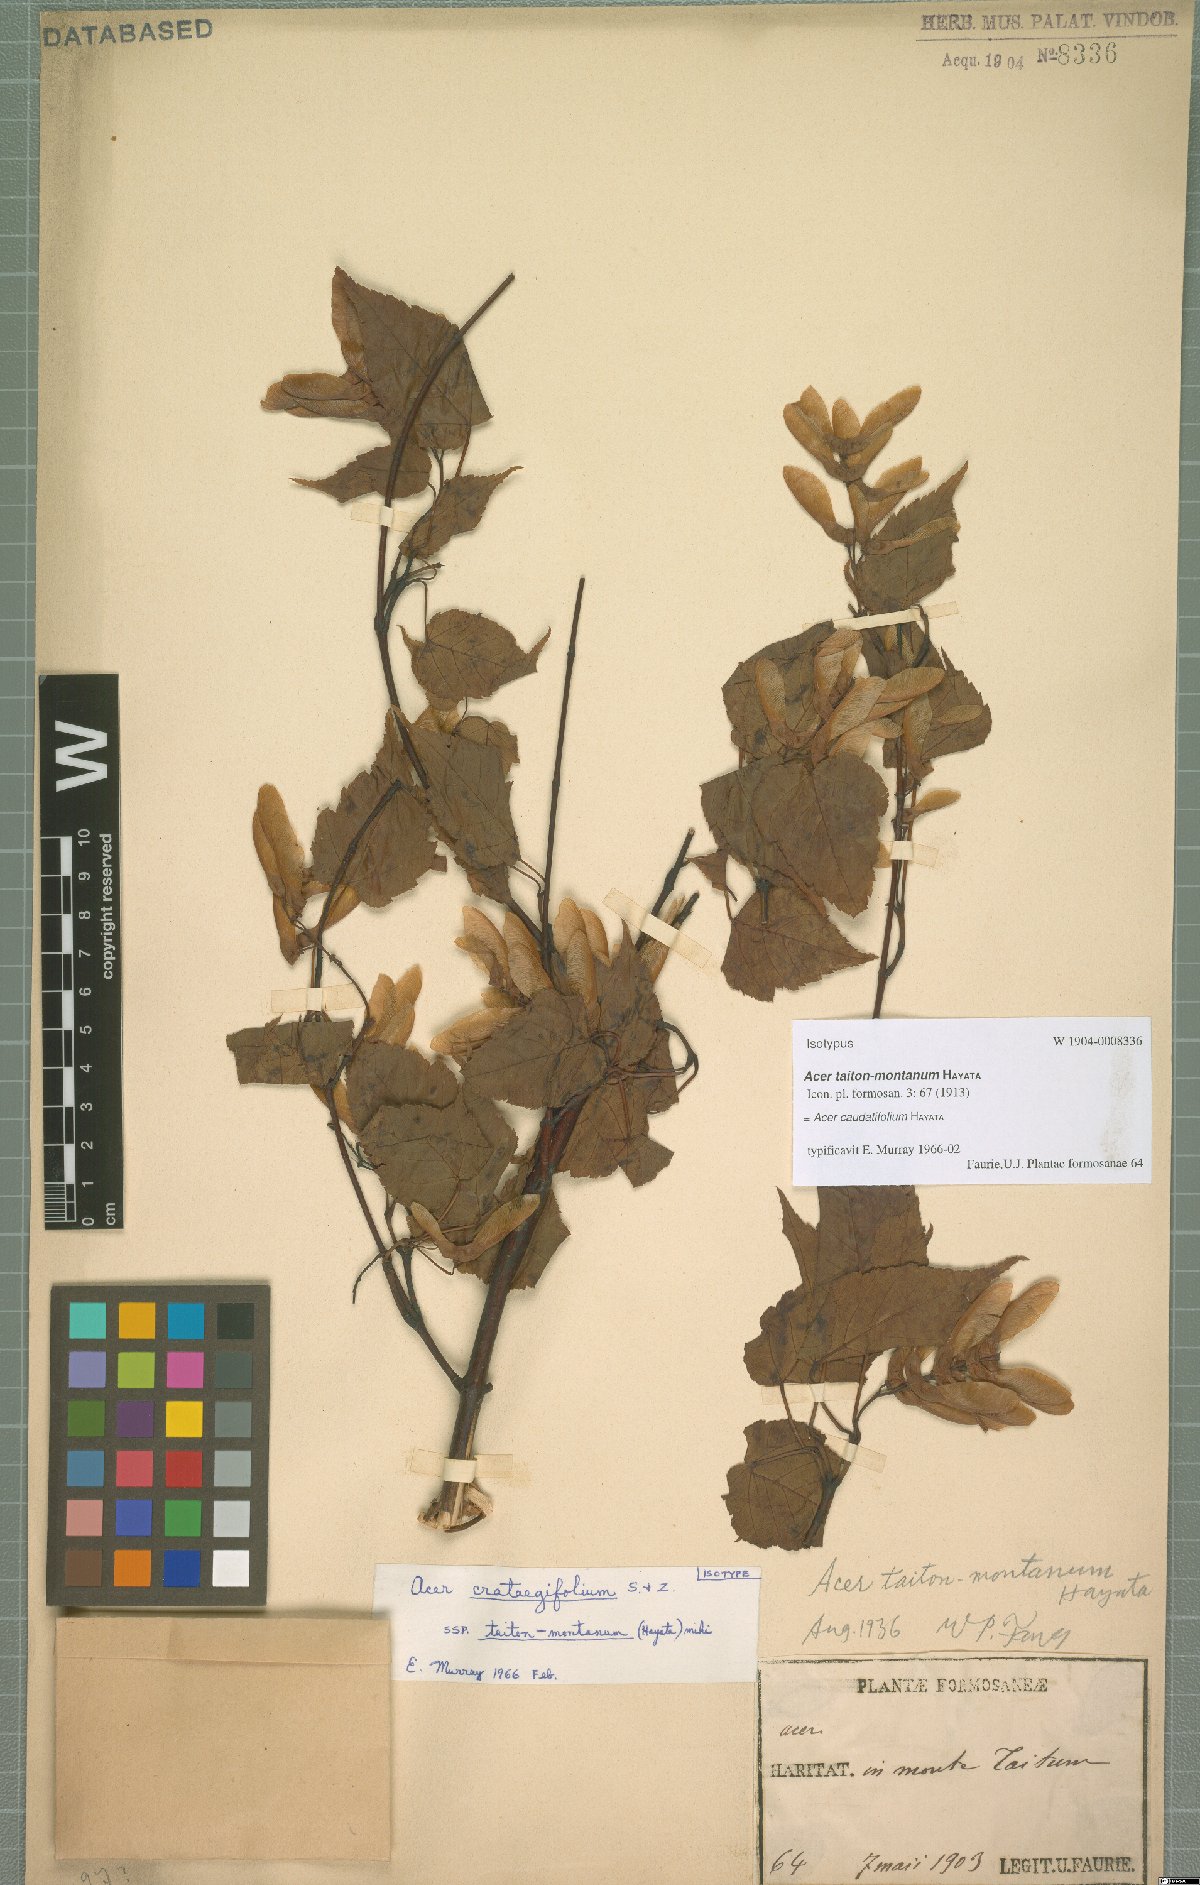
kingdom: Plantae
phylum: Tracheophyta
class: Magnoliopsida
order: Sapindales
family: Sapindaceae
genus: Acer
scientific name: Acer caudatifolium
